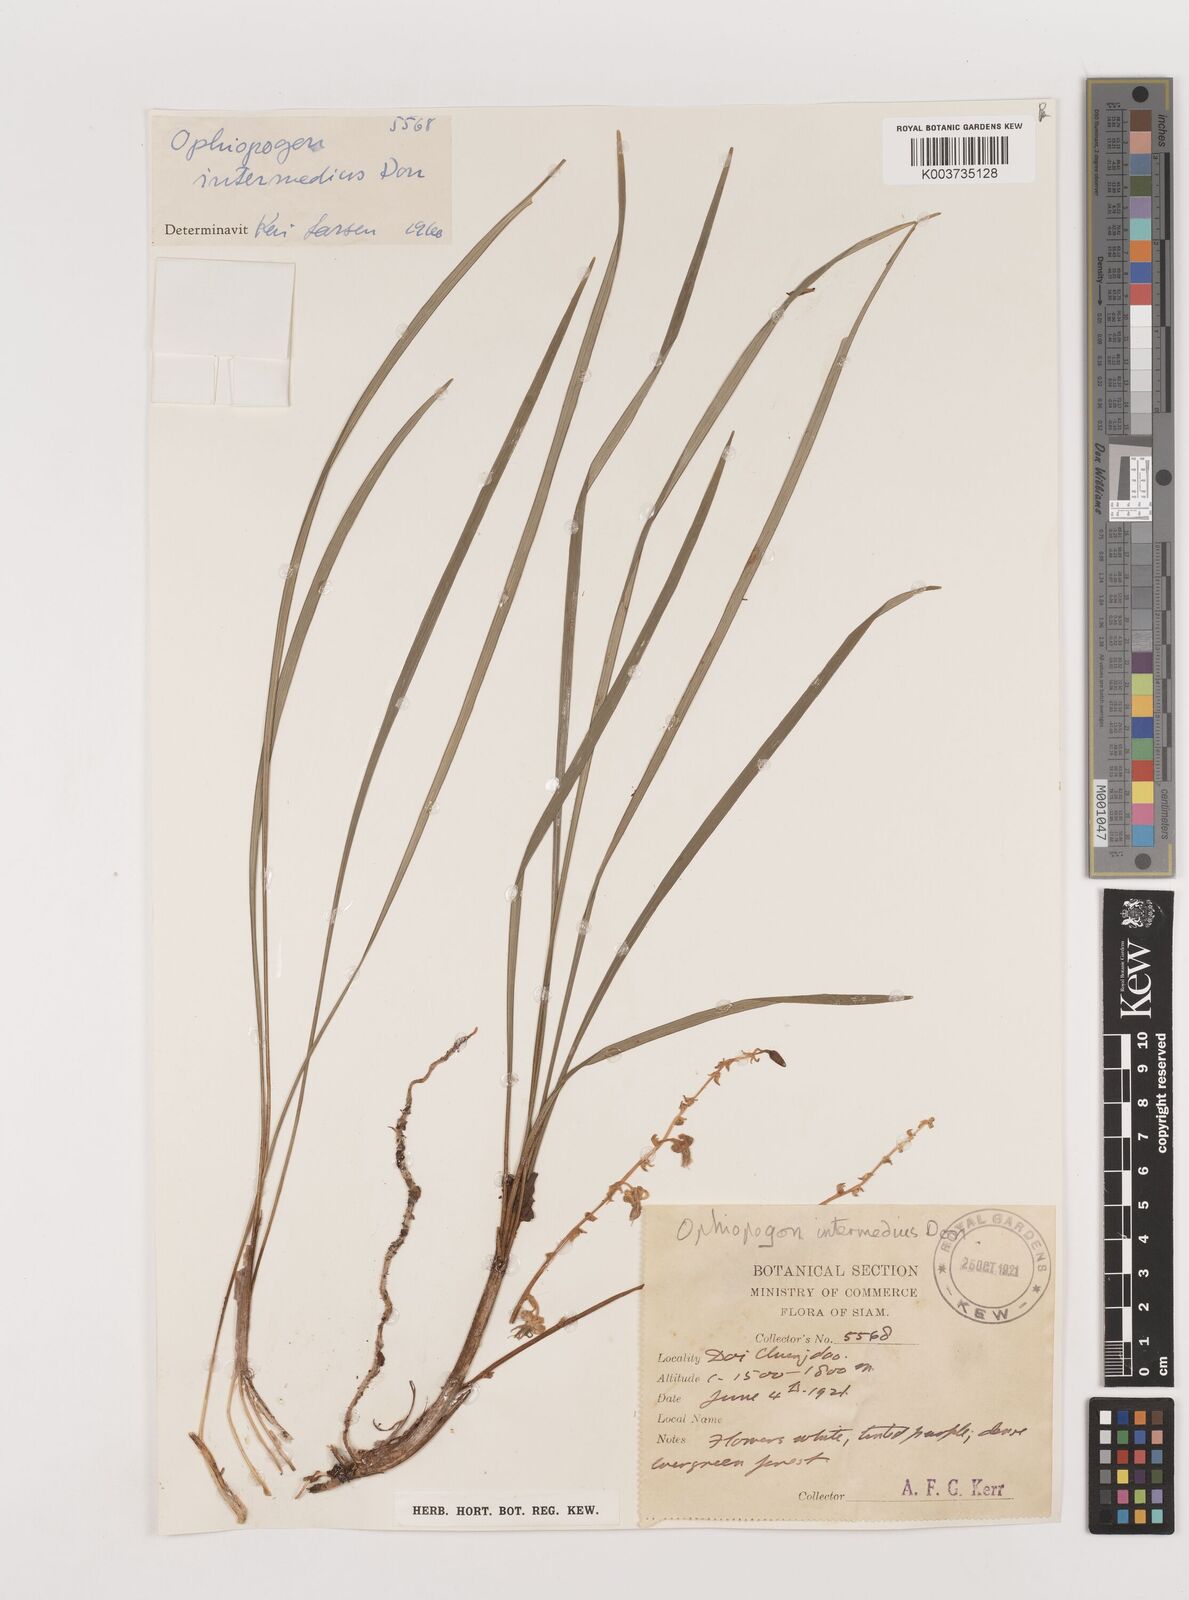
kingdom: Plantae
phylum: Tracheophyta
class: Liliopsida
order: Asparagales
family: Asparagaceae
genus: Ophiopogon
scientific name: Ophiopogon intermedius
